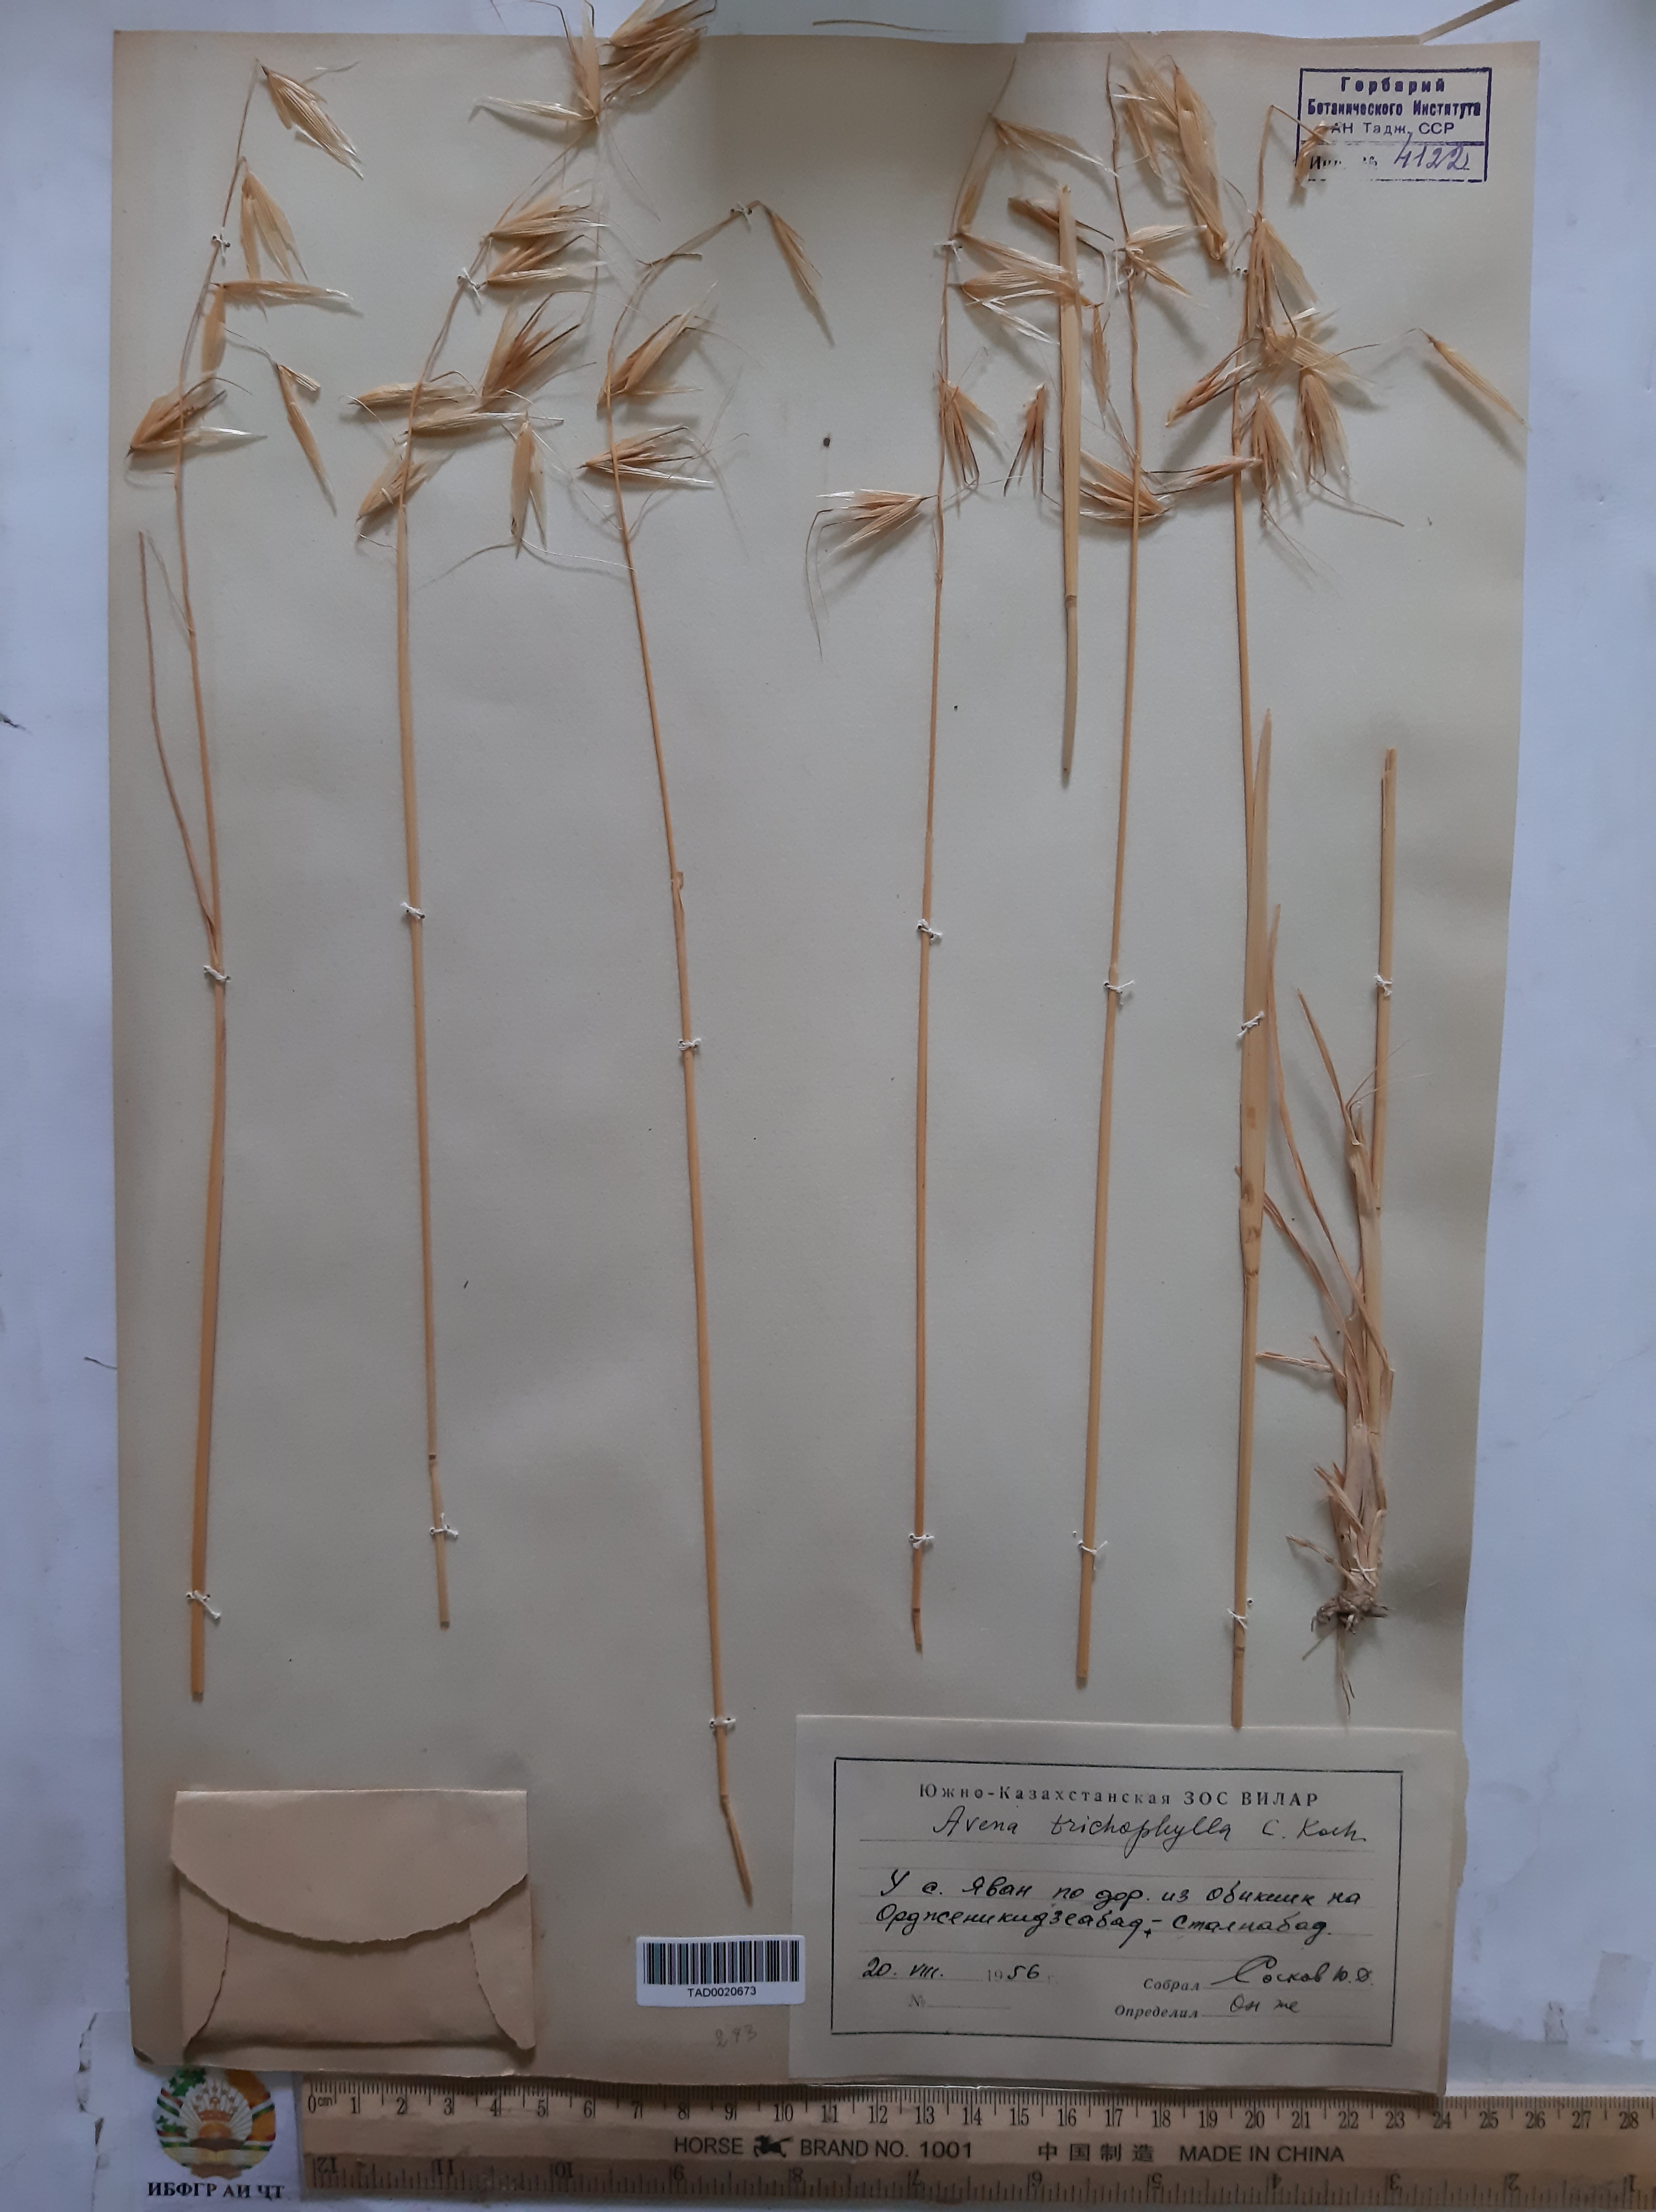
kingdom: Plantae
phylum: Tracheophyta
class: Liliopsida
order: Poales
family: Poaceae
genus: Avena
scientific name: Avena sterilis
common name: Animated oat
